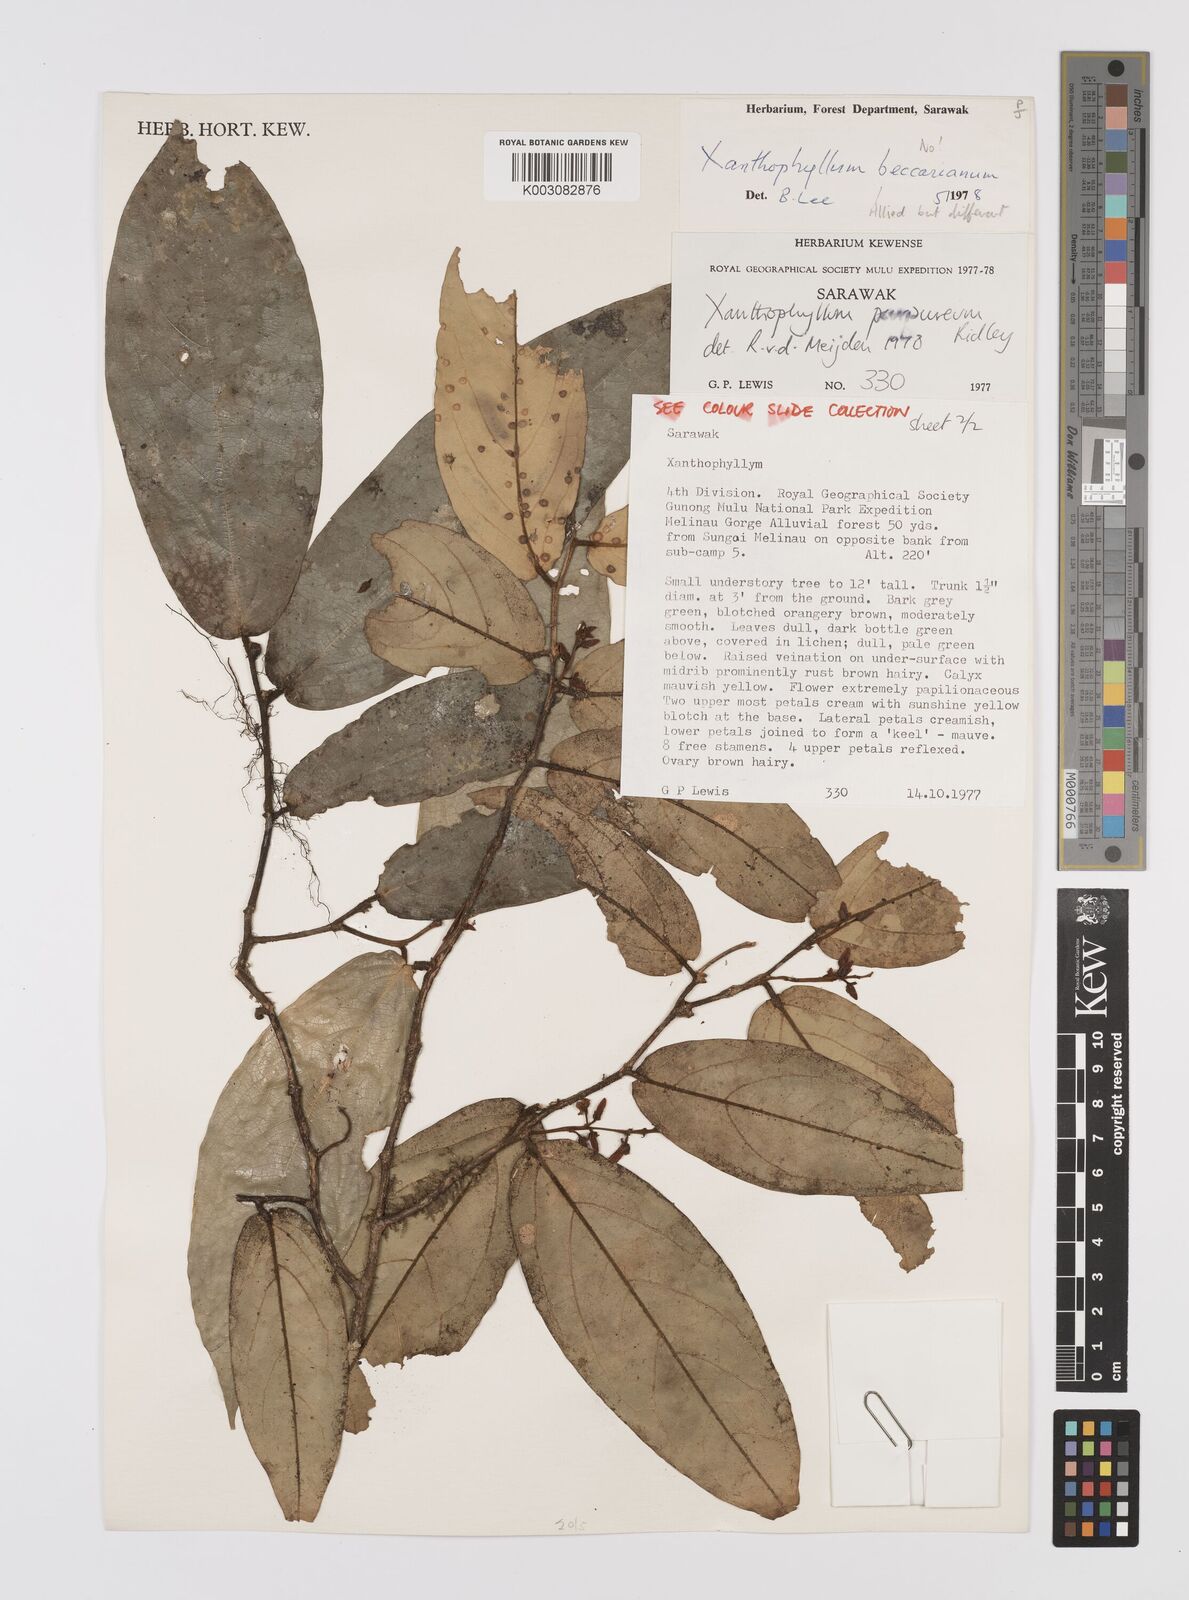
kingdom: Plantae
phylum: Tracheophyta
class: Magnoliopsida
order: Fabales
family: Polygalaceae
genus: Xanthophyllum
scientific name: Xanthophyllum purpureum
